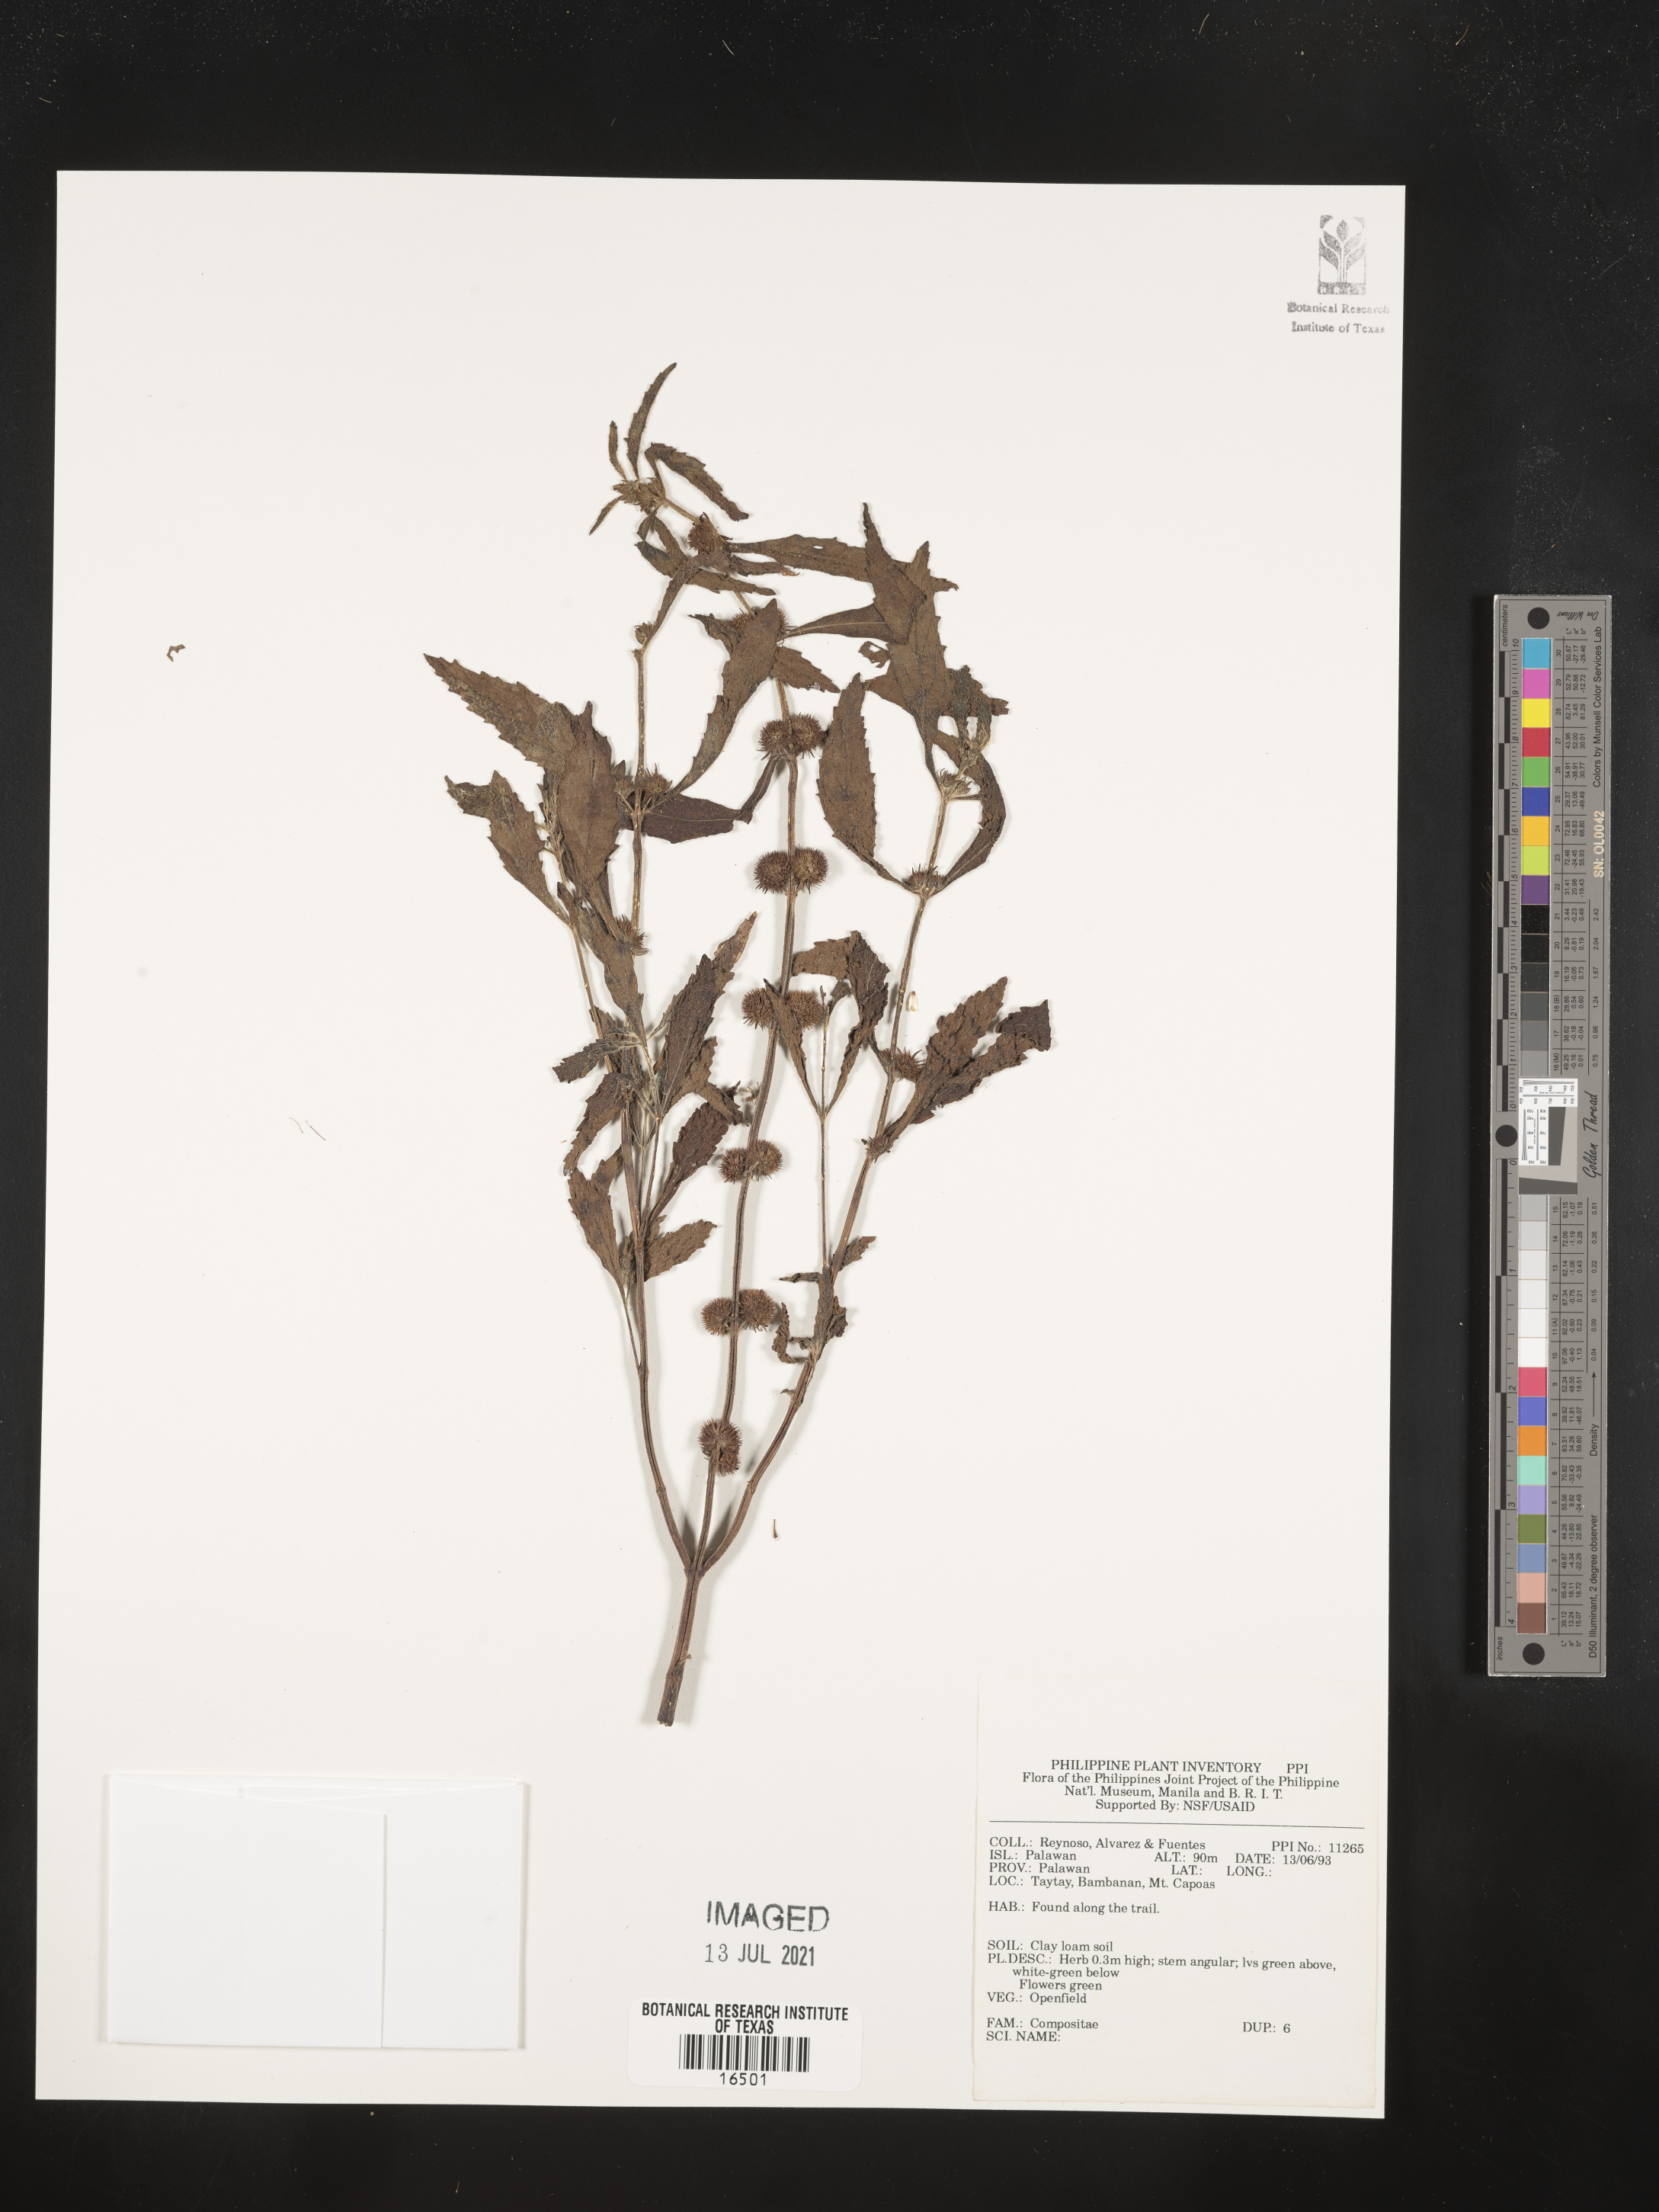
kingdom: Plantae
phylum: Tracheophyta
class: Magnoliopsida
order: Asterales
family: Asteraceae
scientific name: Asteraceae
